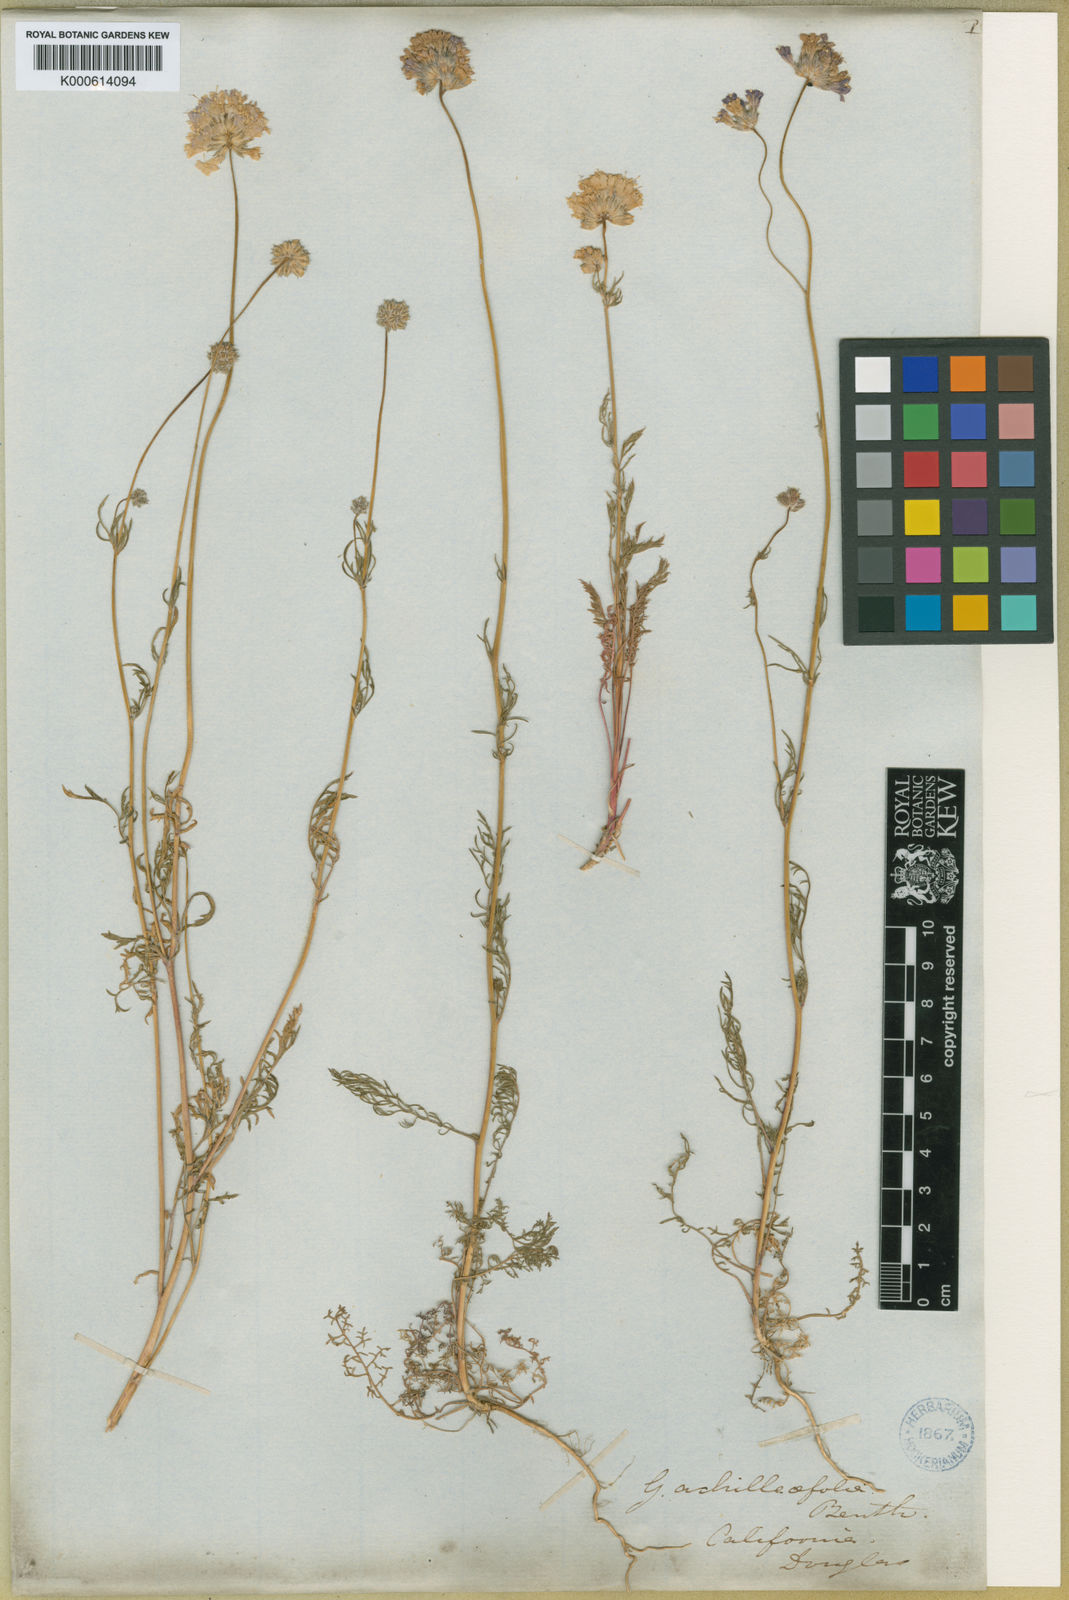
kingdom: Plantae
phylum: Tracheophyta
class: Magnoliopsida
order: Ericales
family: Polemoniaceae
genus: Gilia
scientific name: Gilia achilleifolia
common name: California gily-flower
